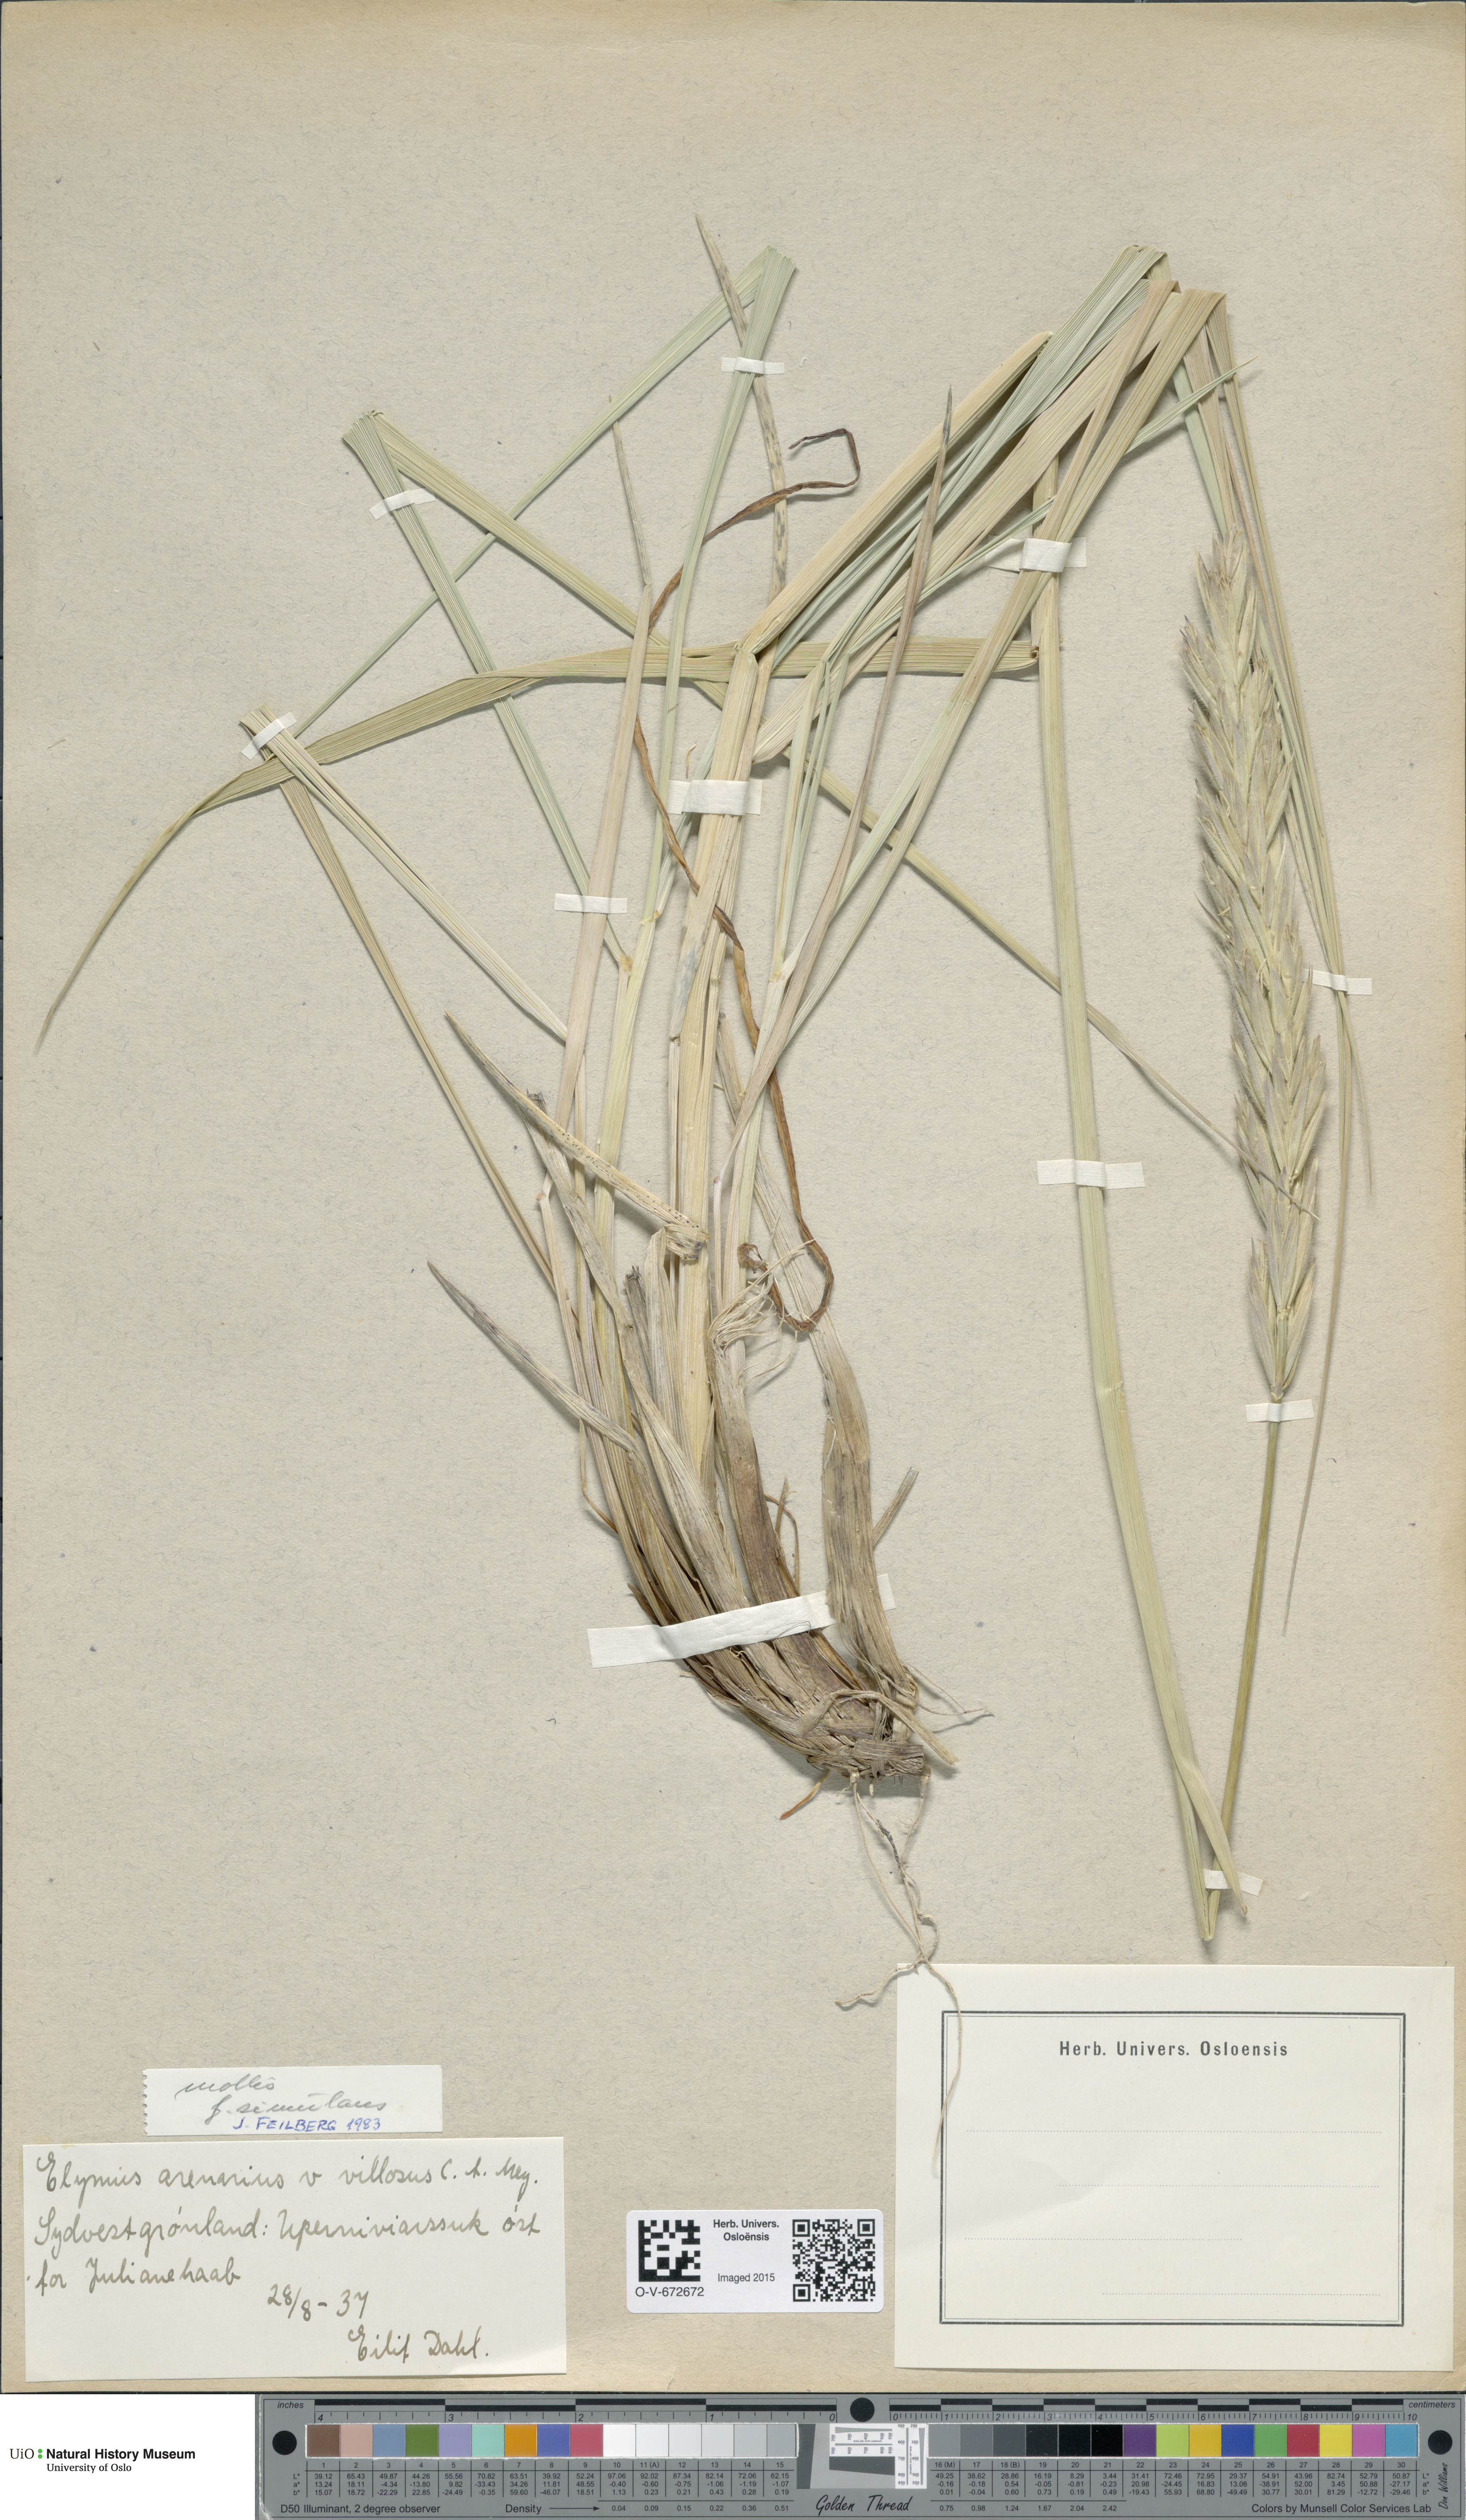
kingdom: Plantae
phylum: Tracheophyta
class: Liliopsida
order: Poales
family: Poaceae
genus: Leymus
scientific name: Leymus arenarius
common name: Lyme-grass
